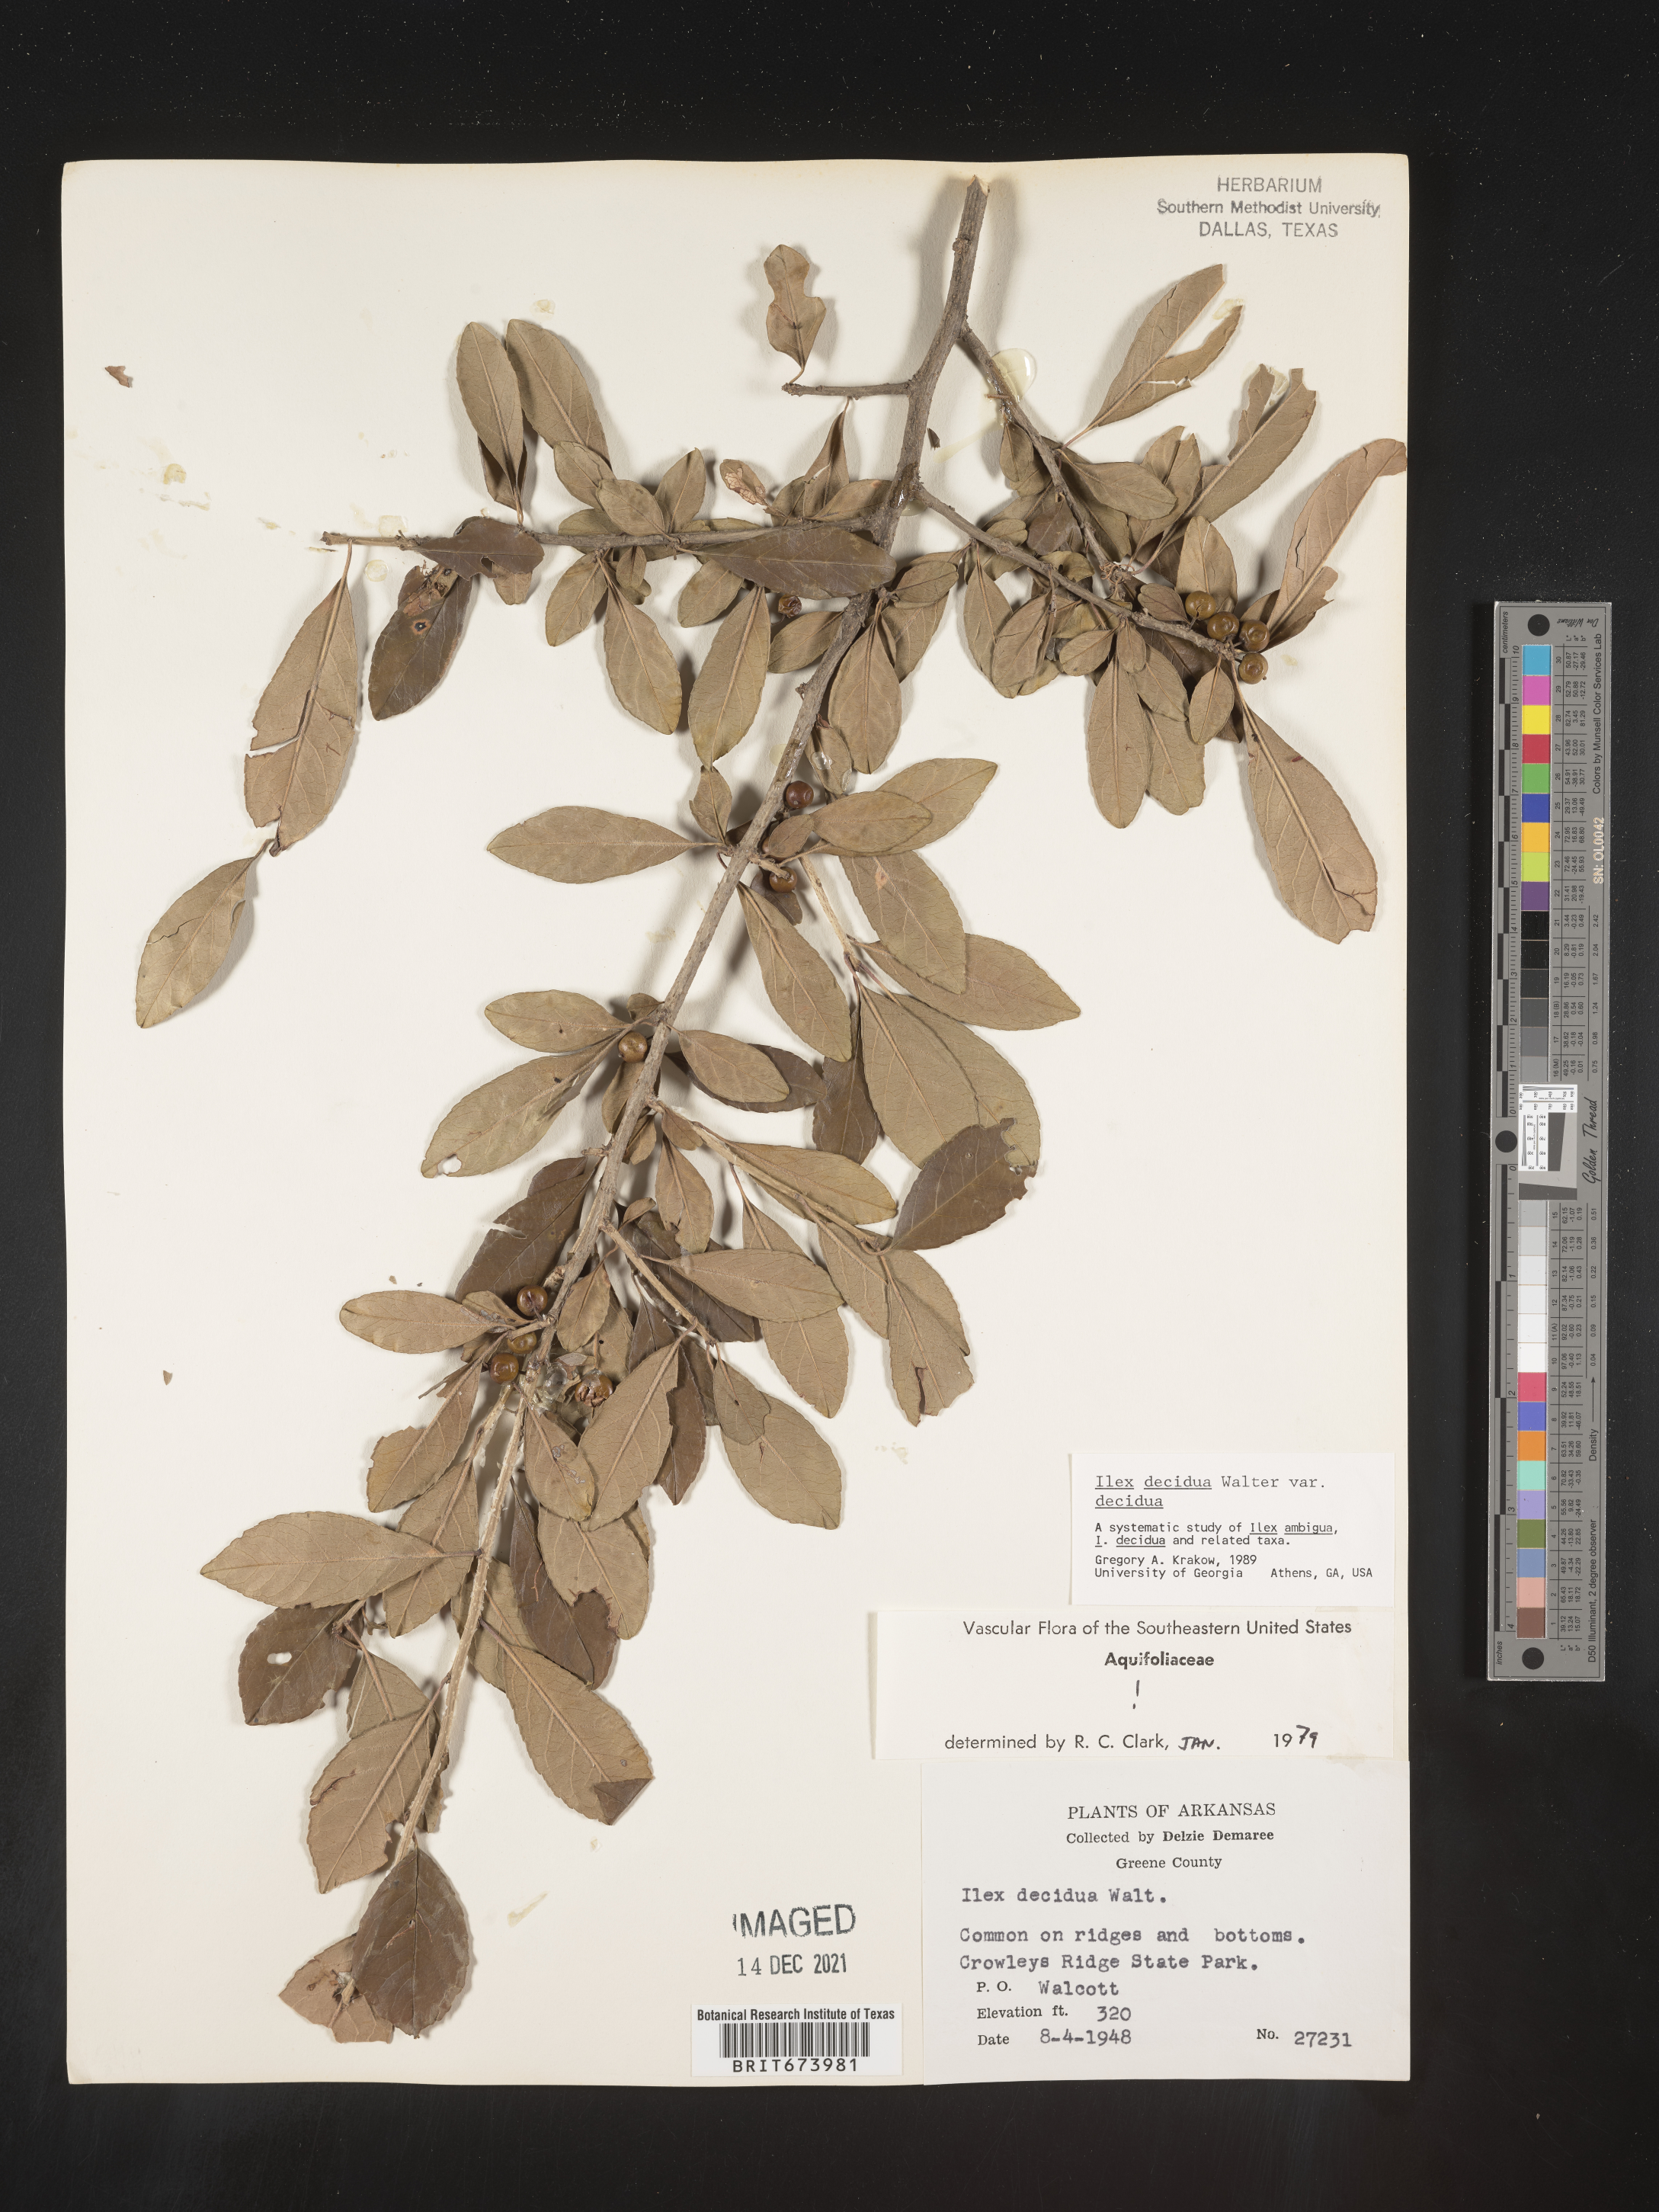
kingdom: Plantae
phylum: Tracheophyta
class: Magnoliopsida
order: Aquifoliales
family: Aquifoliaceae
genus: Ilex
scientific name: Ilex decidua
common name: Possum-haw
